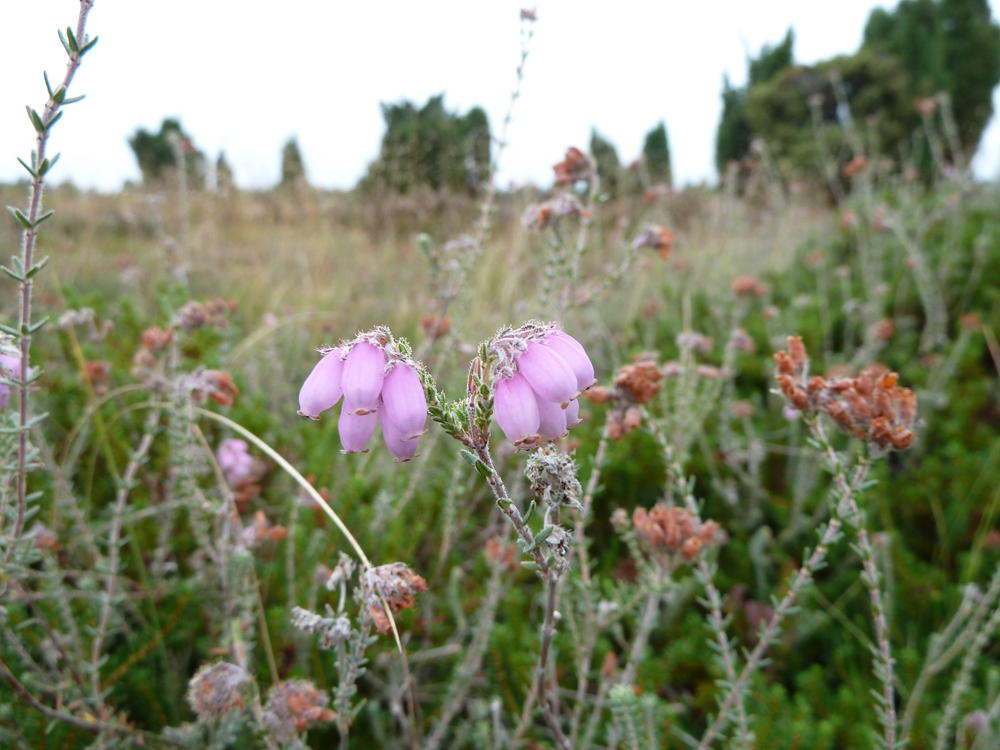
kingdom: Plantae
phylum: Tracheophyta
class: Magnoliopsida
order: Ericales
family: Ericaceae
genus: Erica
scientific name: Erica tetralix
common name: Cross-leaved heath
